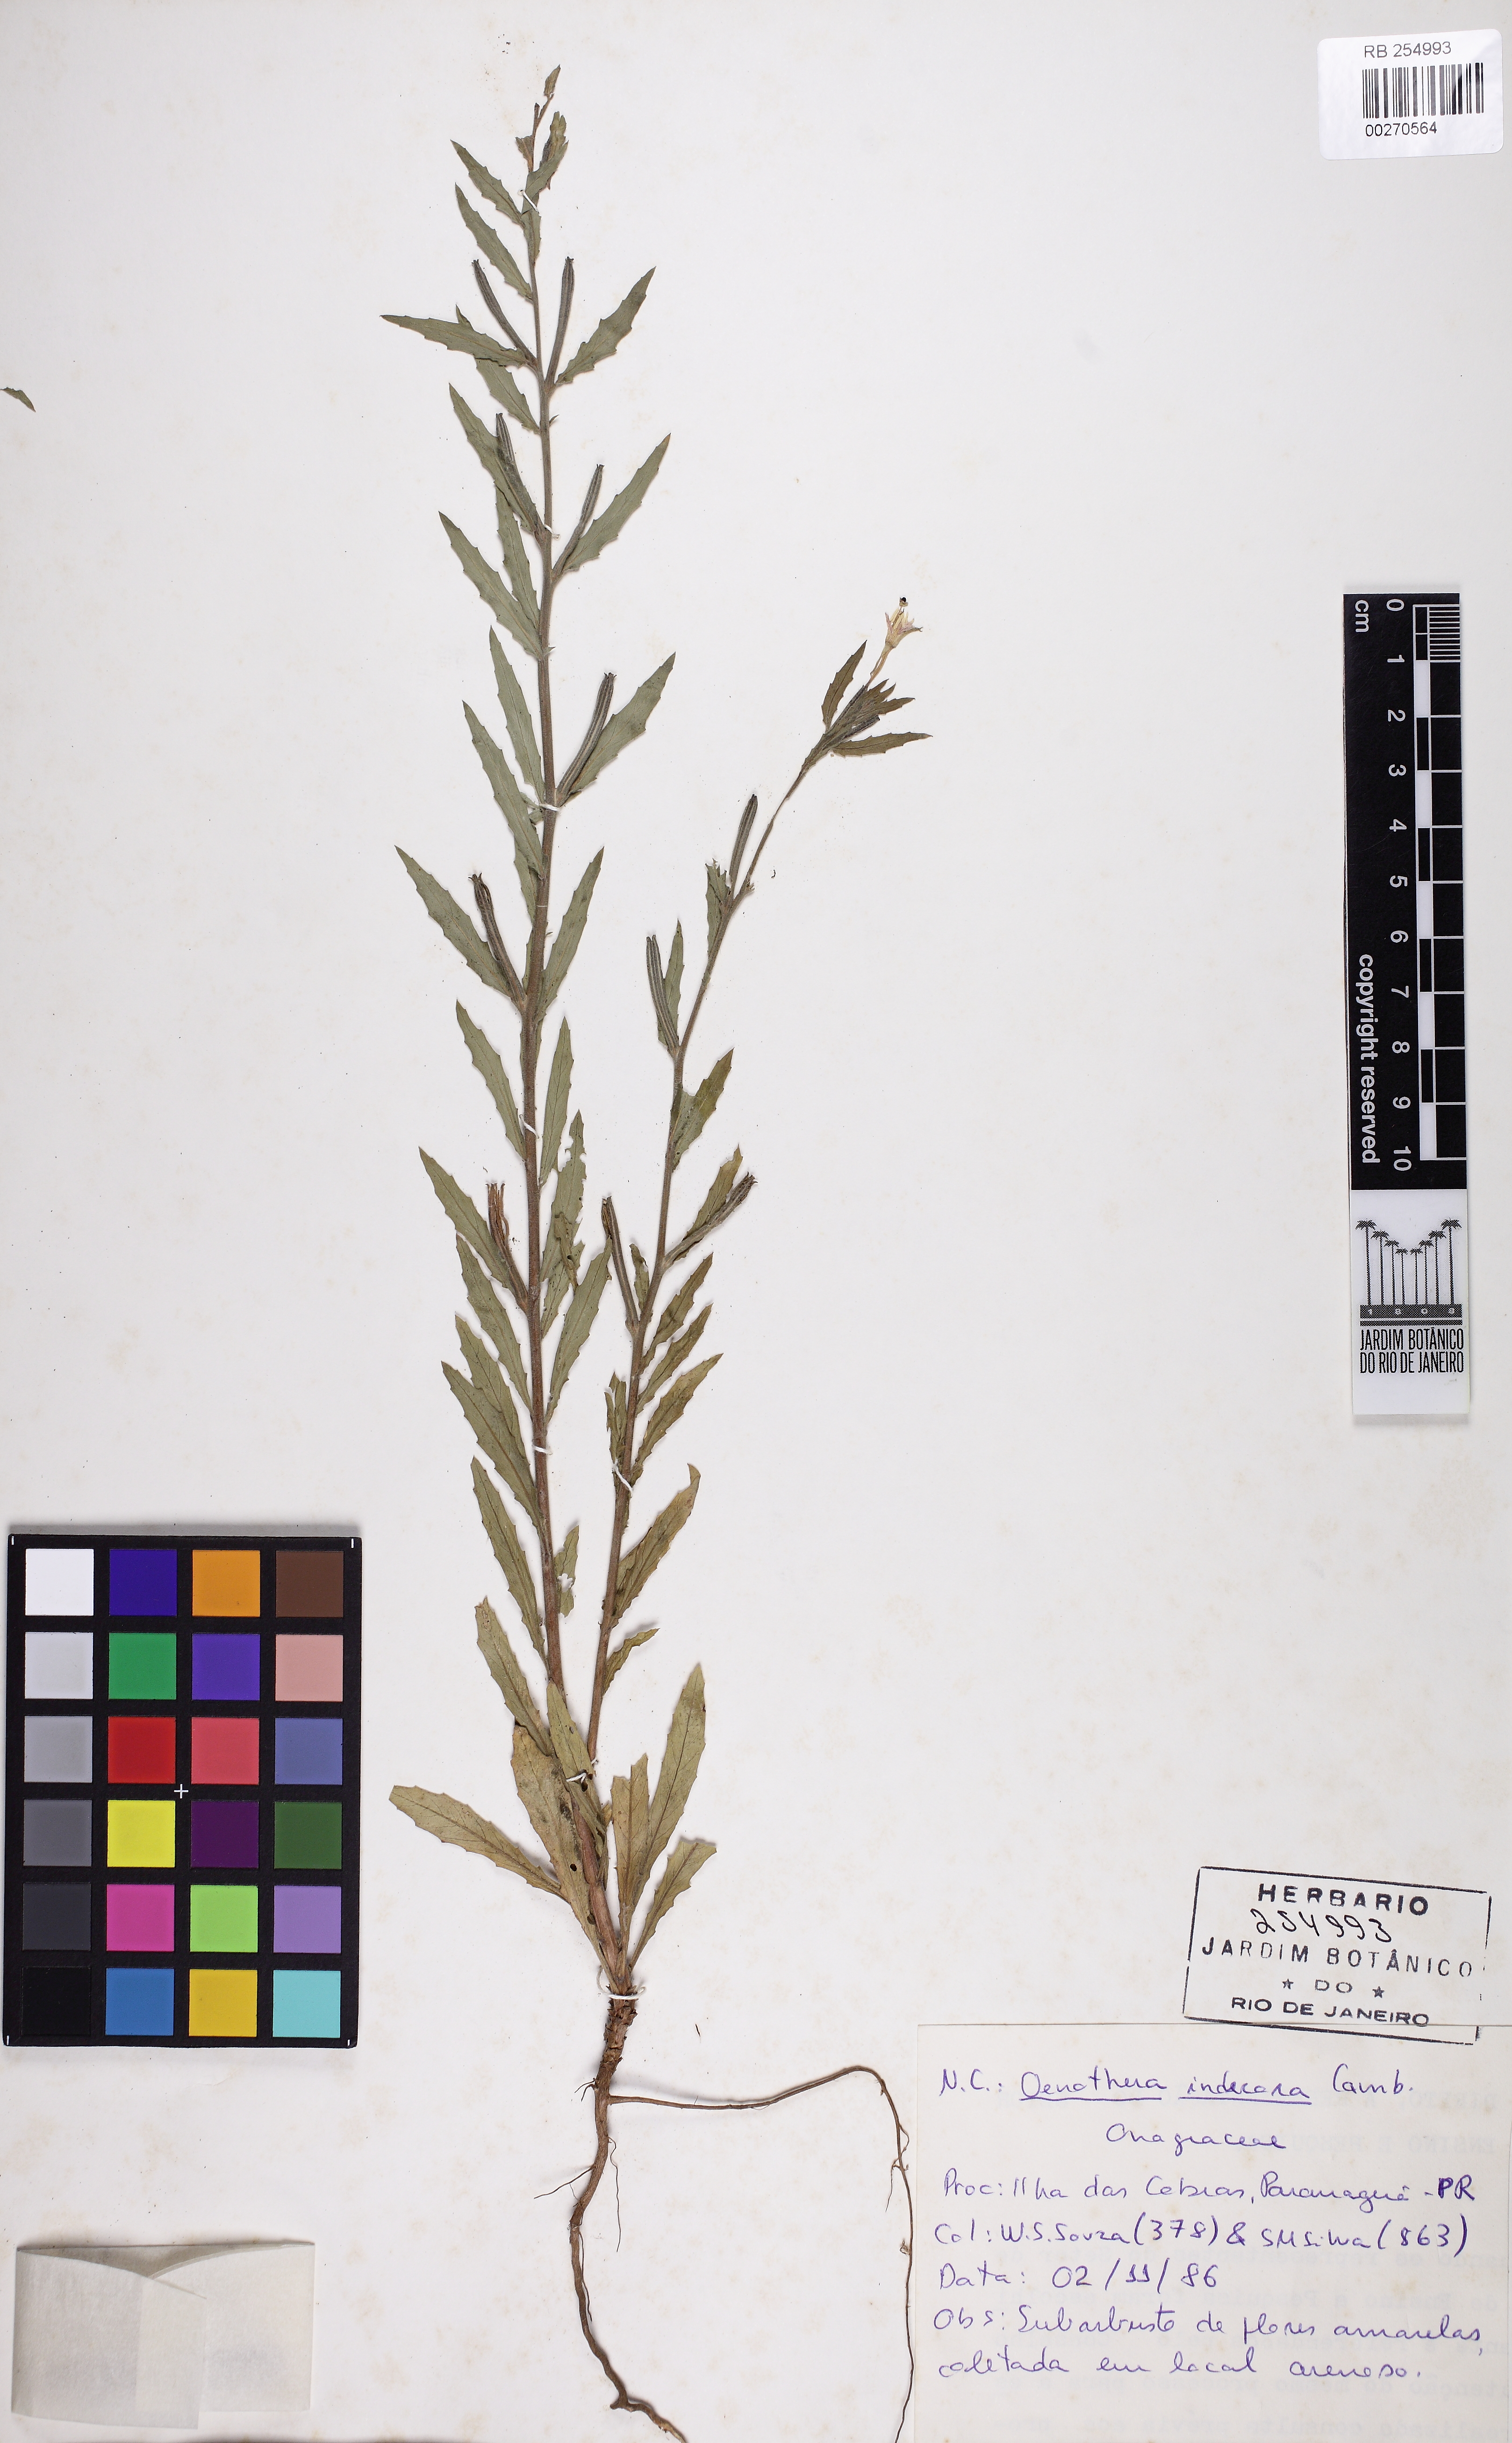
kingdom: Plantae
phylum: Tracheophyta
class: Magnoliopsida
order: Myrtales
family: Onagraceae
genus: Oenothera
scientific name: Oenothera indecora
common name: Small-flower evening-primrose
